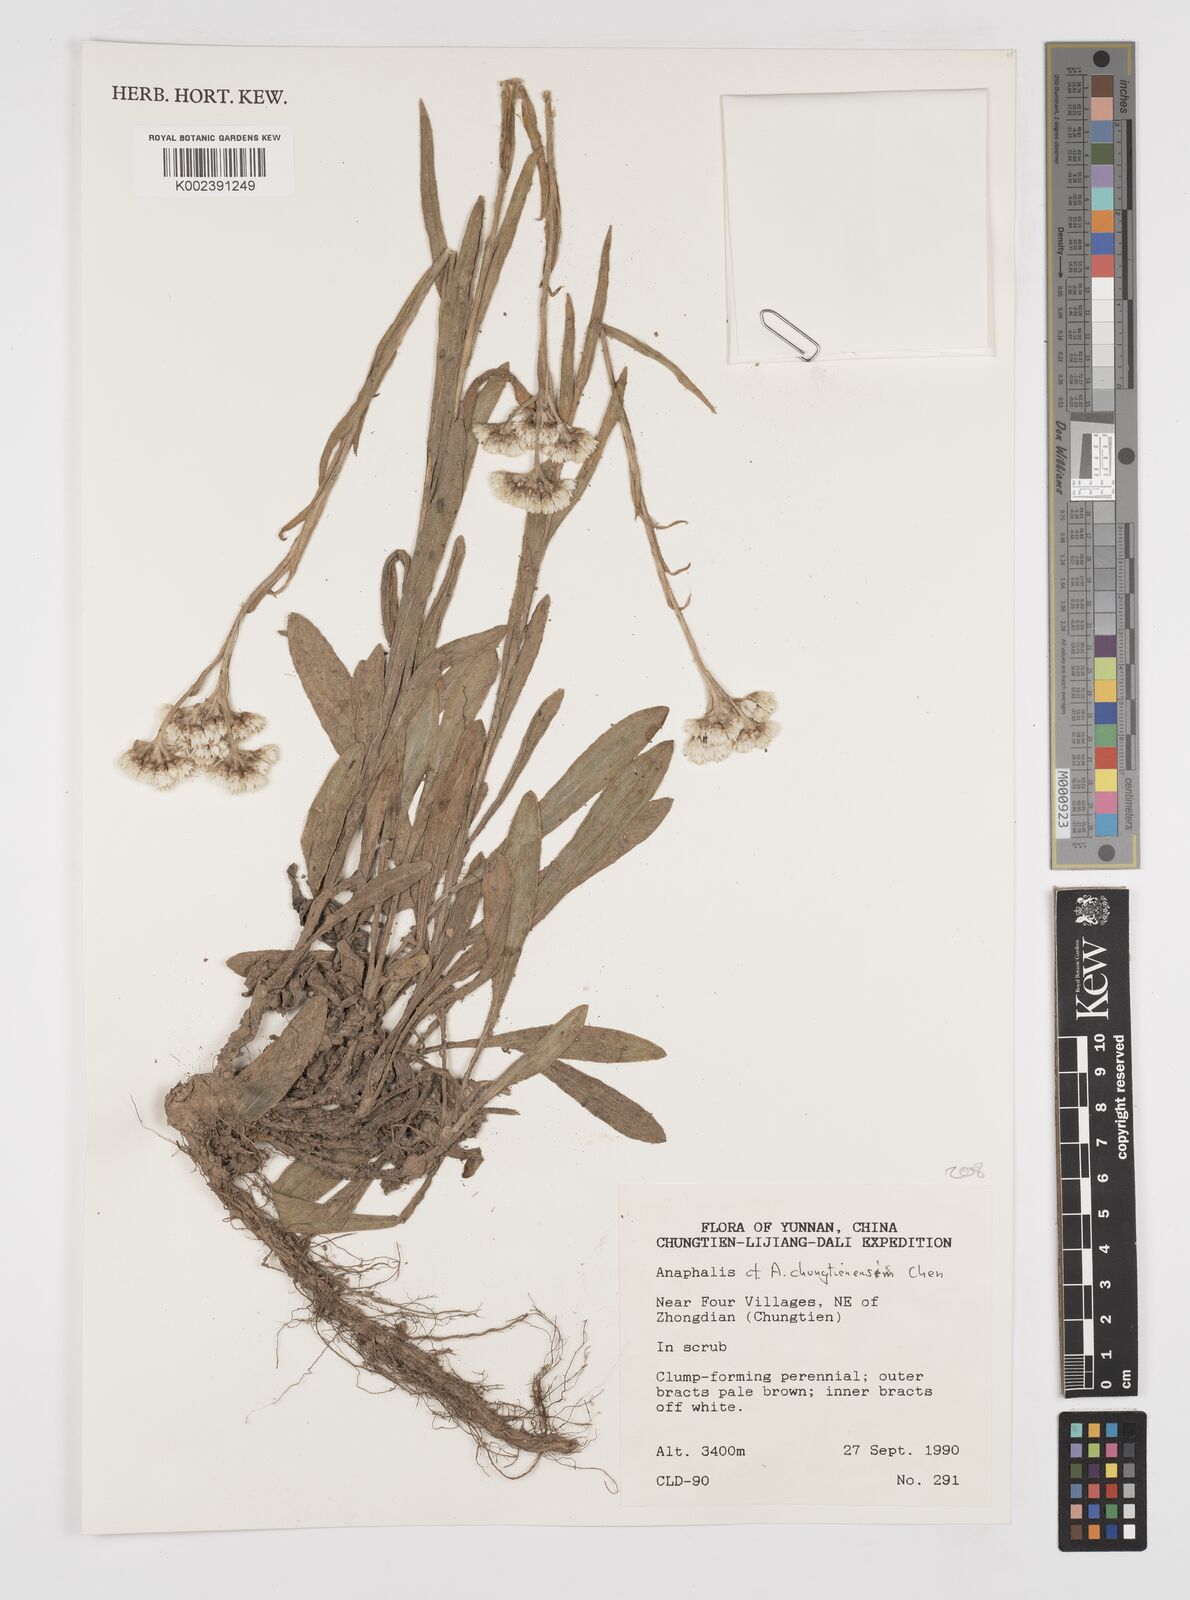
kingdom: Plantae
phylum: Tracheophyta
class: Magnoliopsida
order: Asterales
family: Asteraceae
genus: Anaphalis
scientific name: Anaphalis chungtienensis
